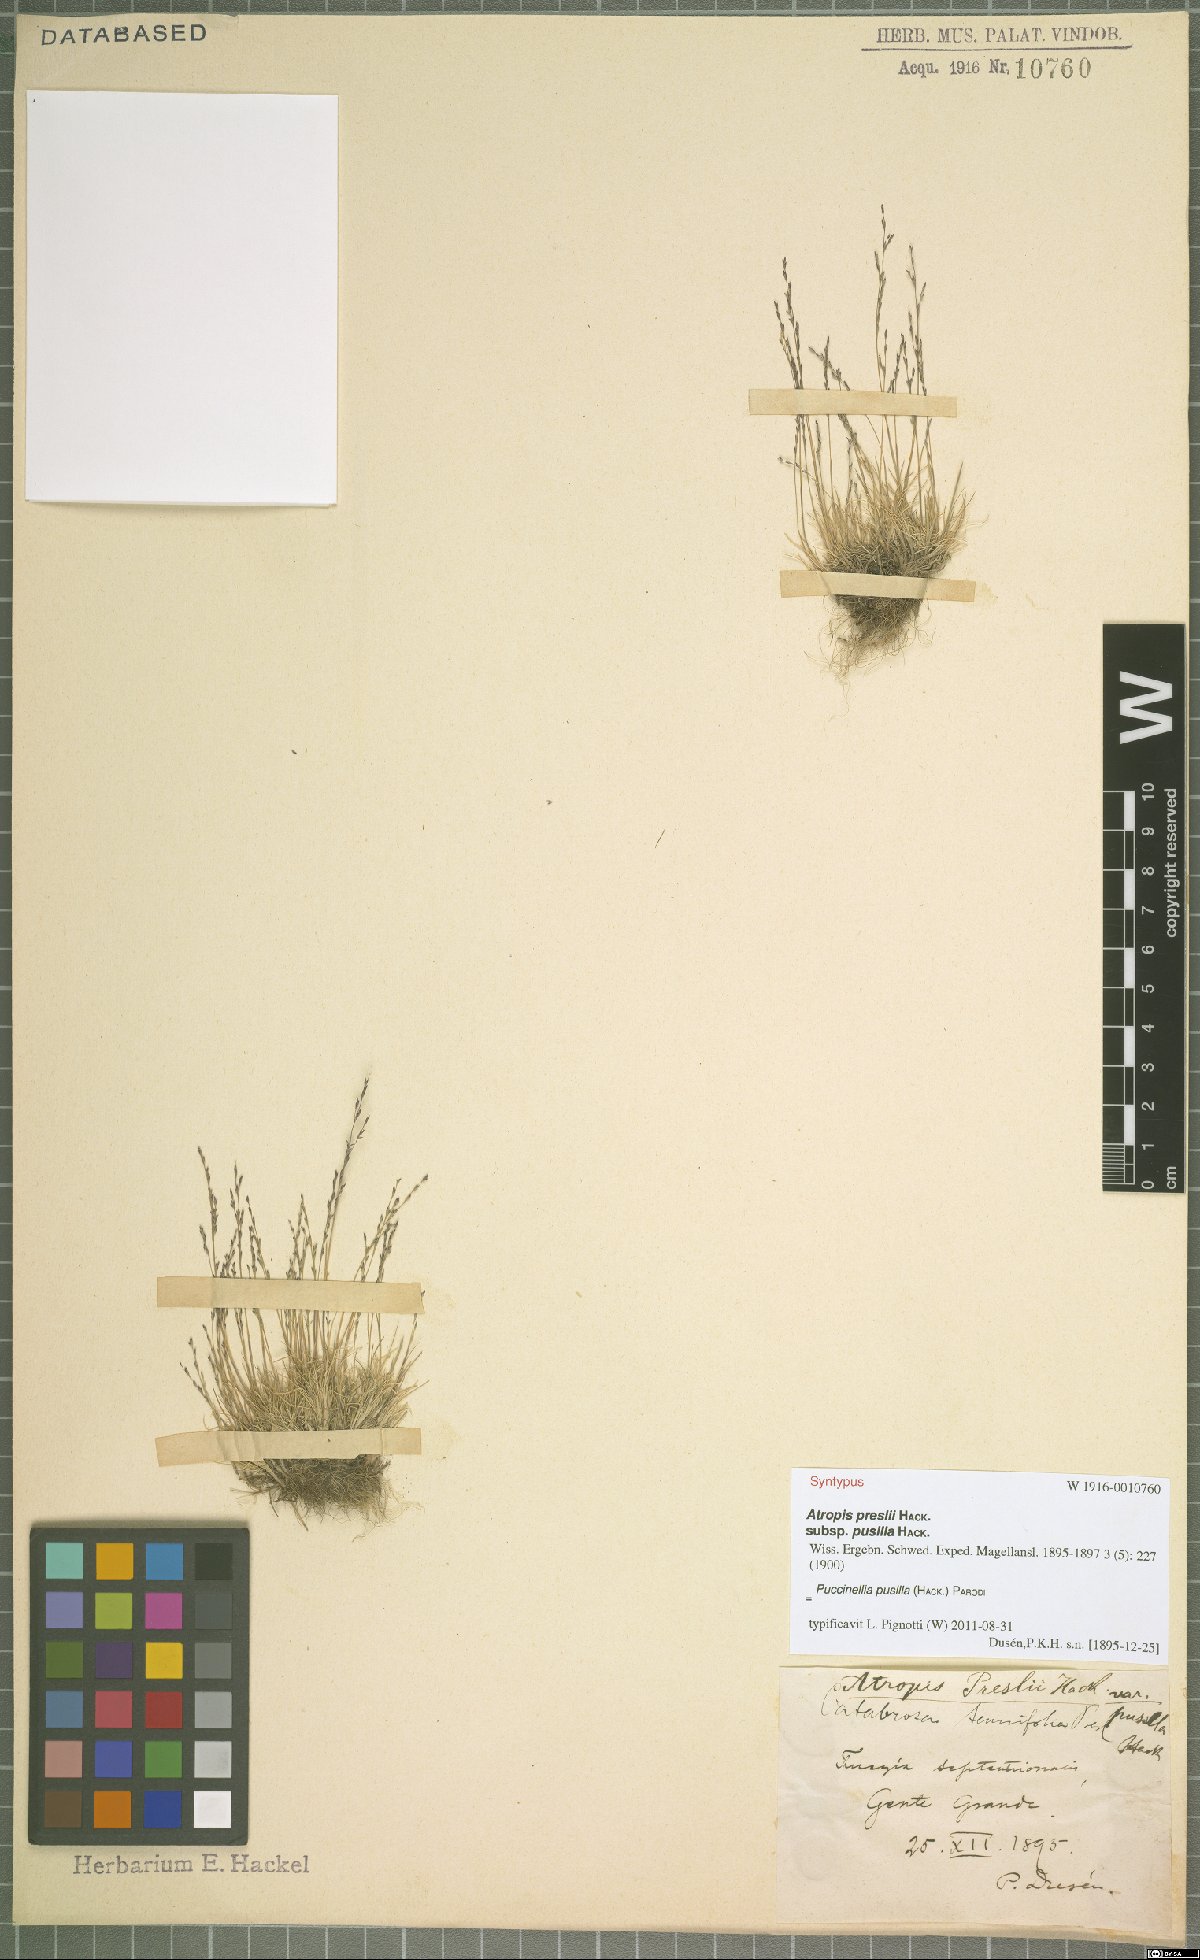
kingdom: Plantae
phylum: Tracheophyta
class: Liliopsida
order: Poales
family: Poaceae
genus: Puccinellia
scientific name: Puccinellia pusilla
